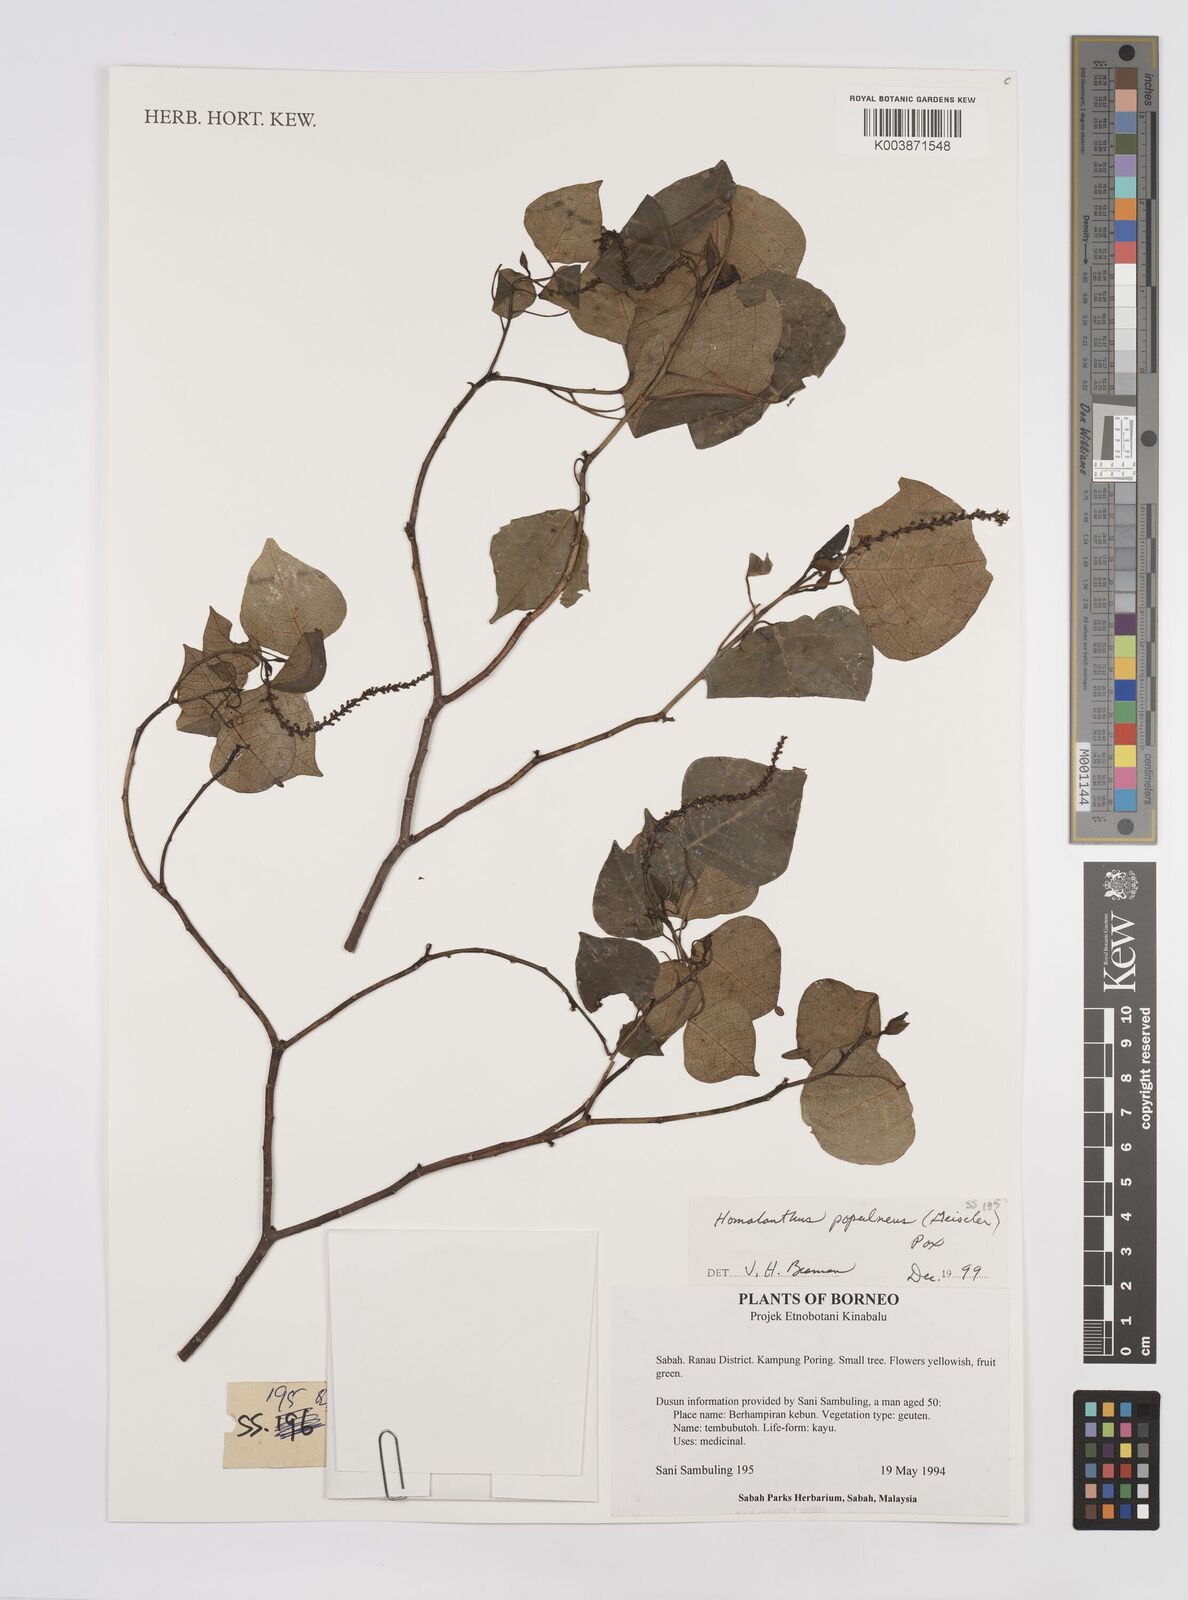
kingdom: Plantae
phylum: Tracheophyta
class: Magnoliopsida
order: Malpighiales
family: Euphorbiaceae
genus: Homalanthus
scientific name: Homalanthus populneus
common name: Spurge
